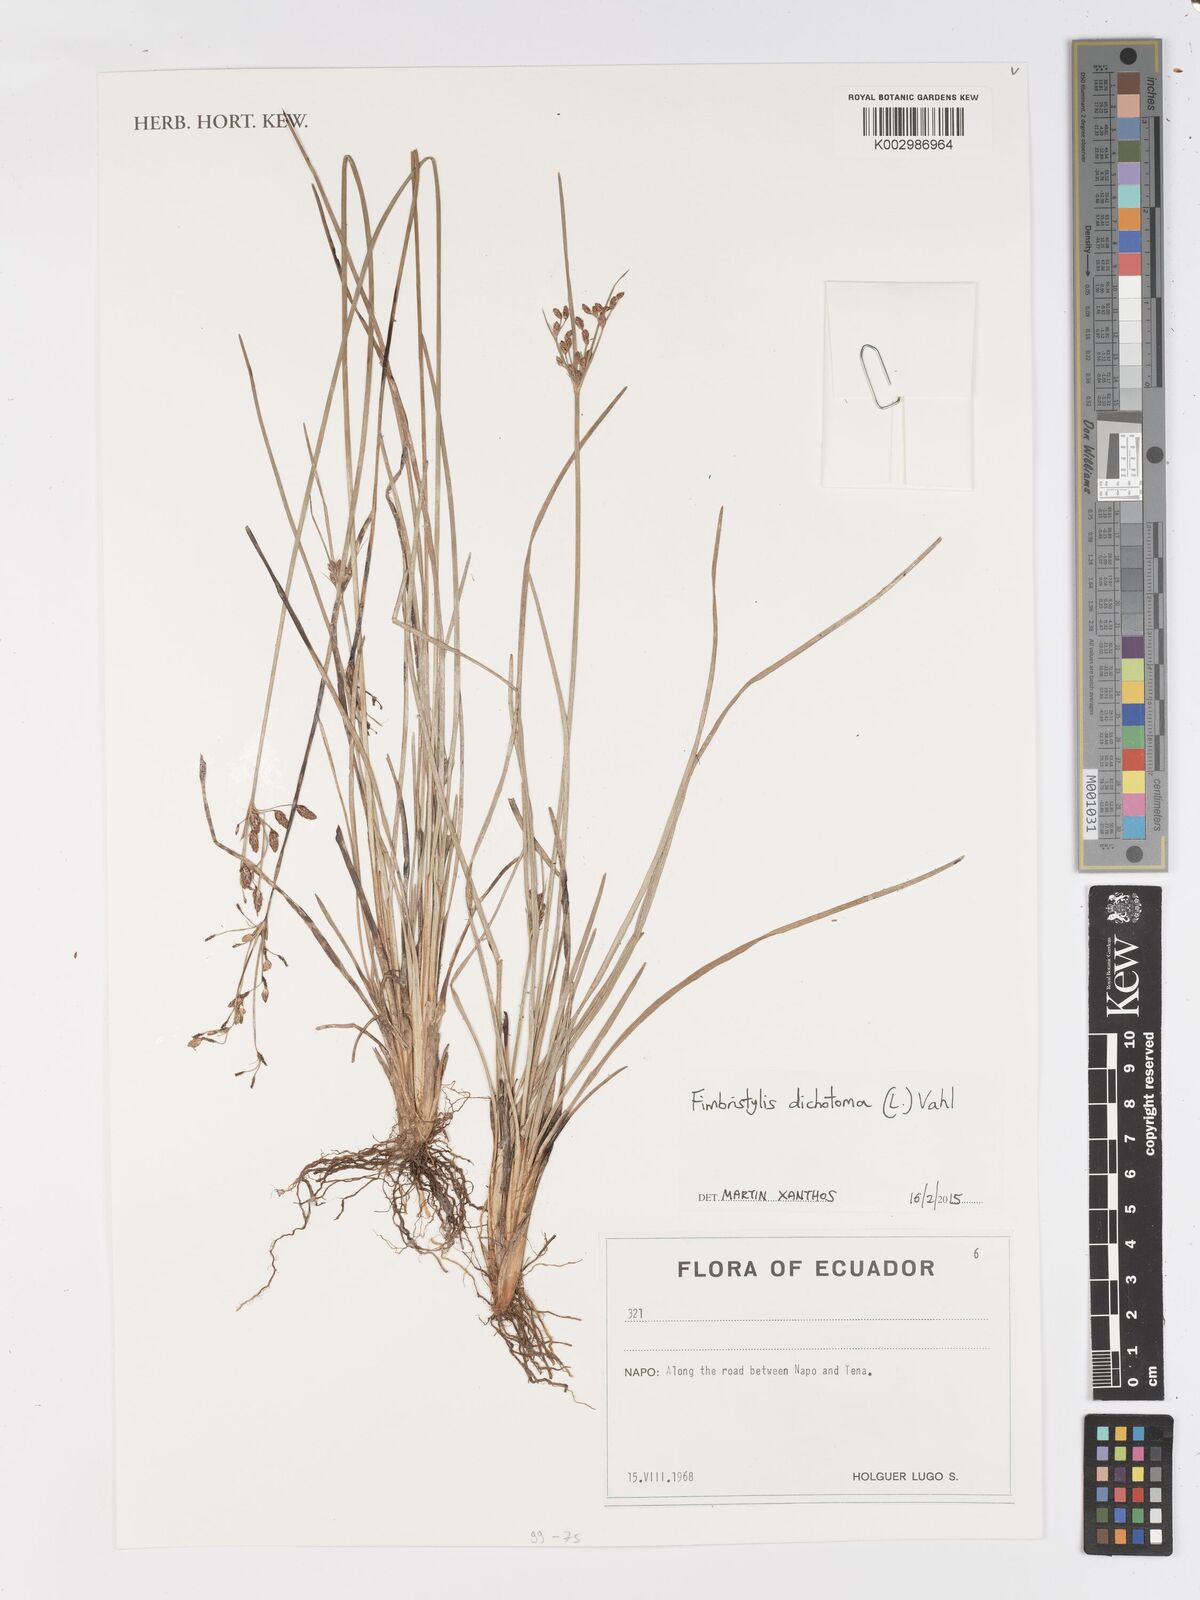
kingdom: Plantae
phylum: Tracheophyta
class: Liliopsida
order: Poales
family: Cyperaceae
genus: Fimbristylis
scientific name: Fimbristylis dichotoma
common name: Forked fimbry
